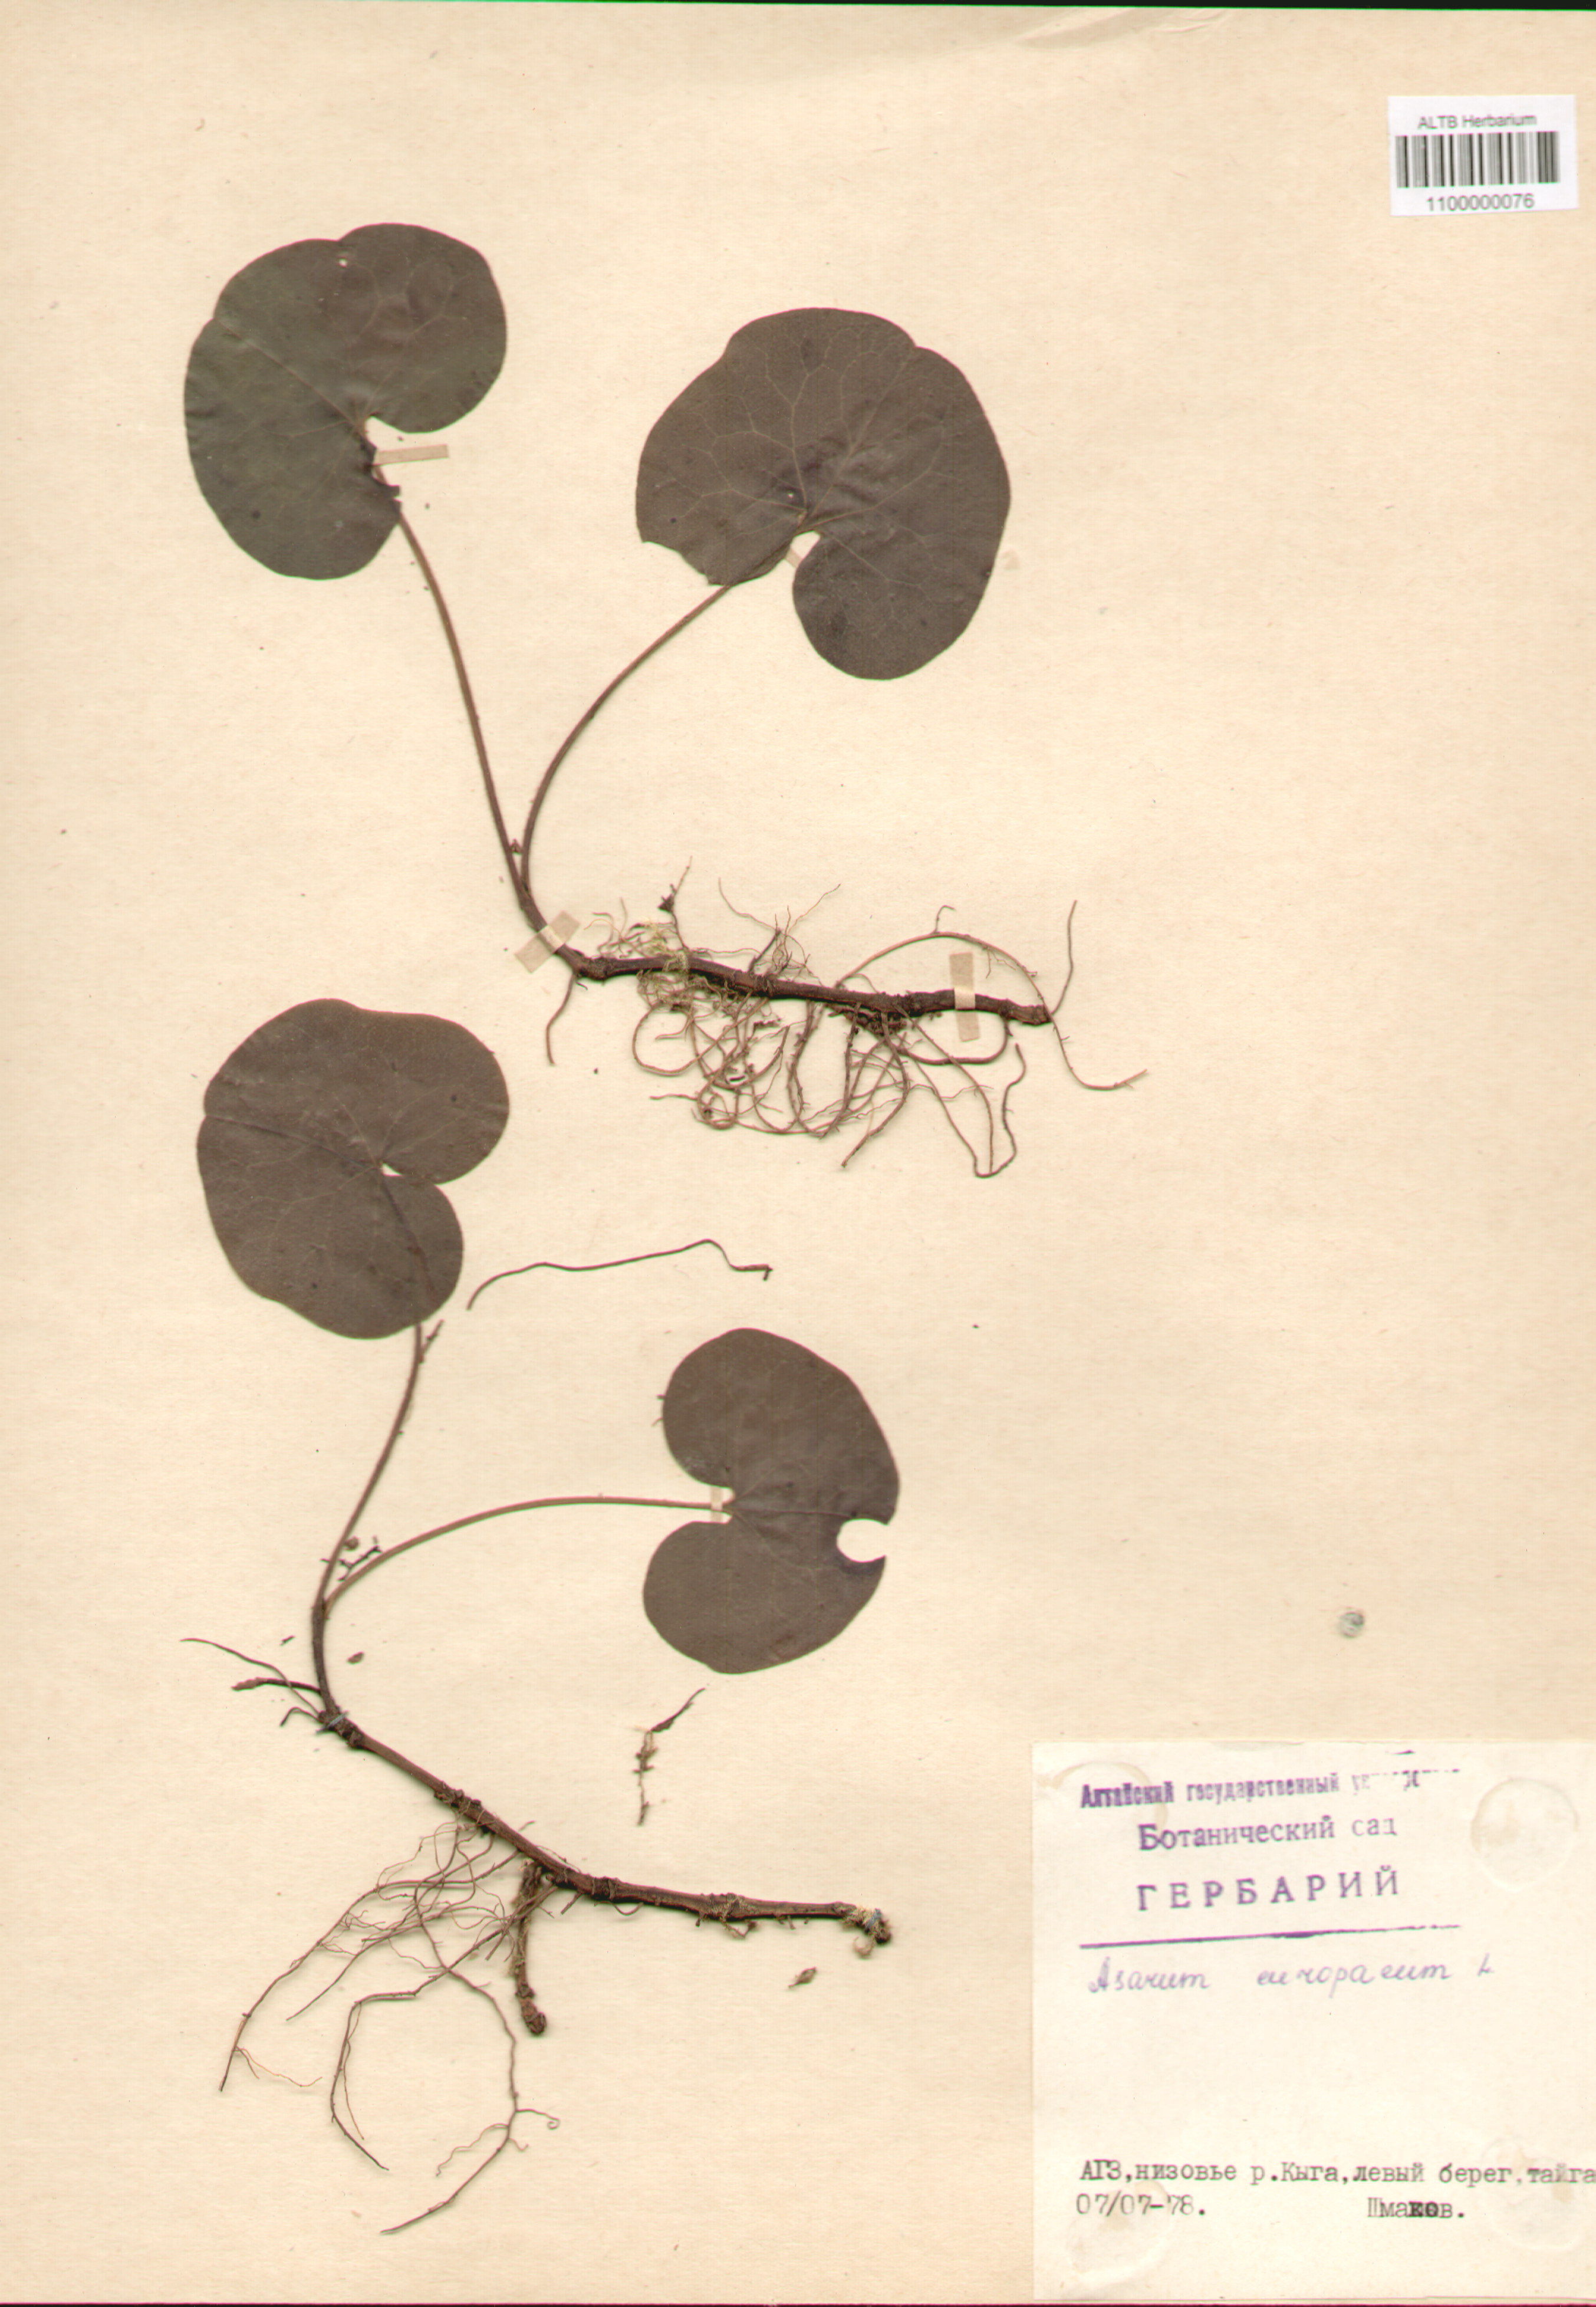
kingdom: Plantae
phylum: Tracheophyta
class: Magnoliopsida
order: Piperales
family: Aristolochiaceae
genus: Asarum
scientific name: Asarum europaeum
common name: Asarabacca
